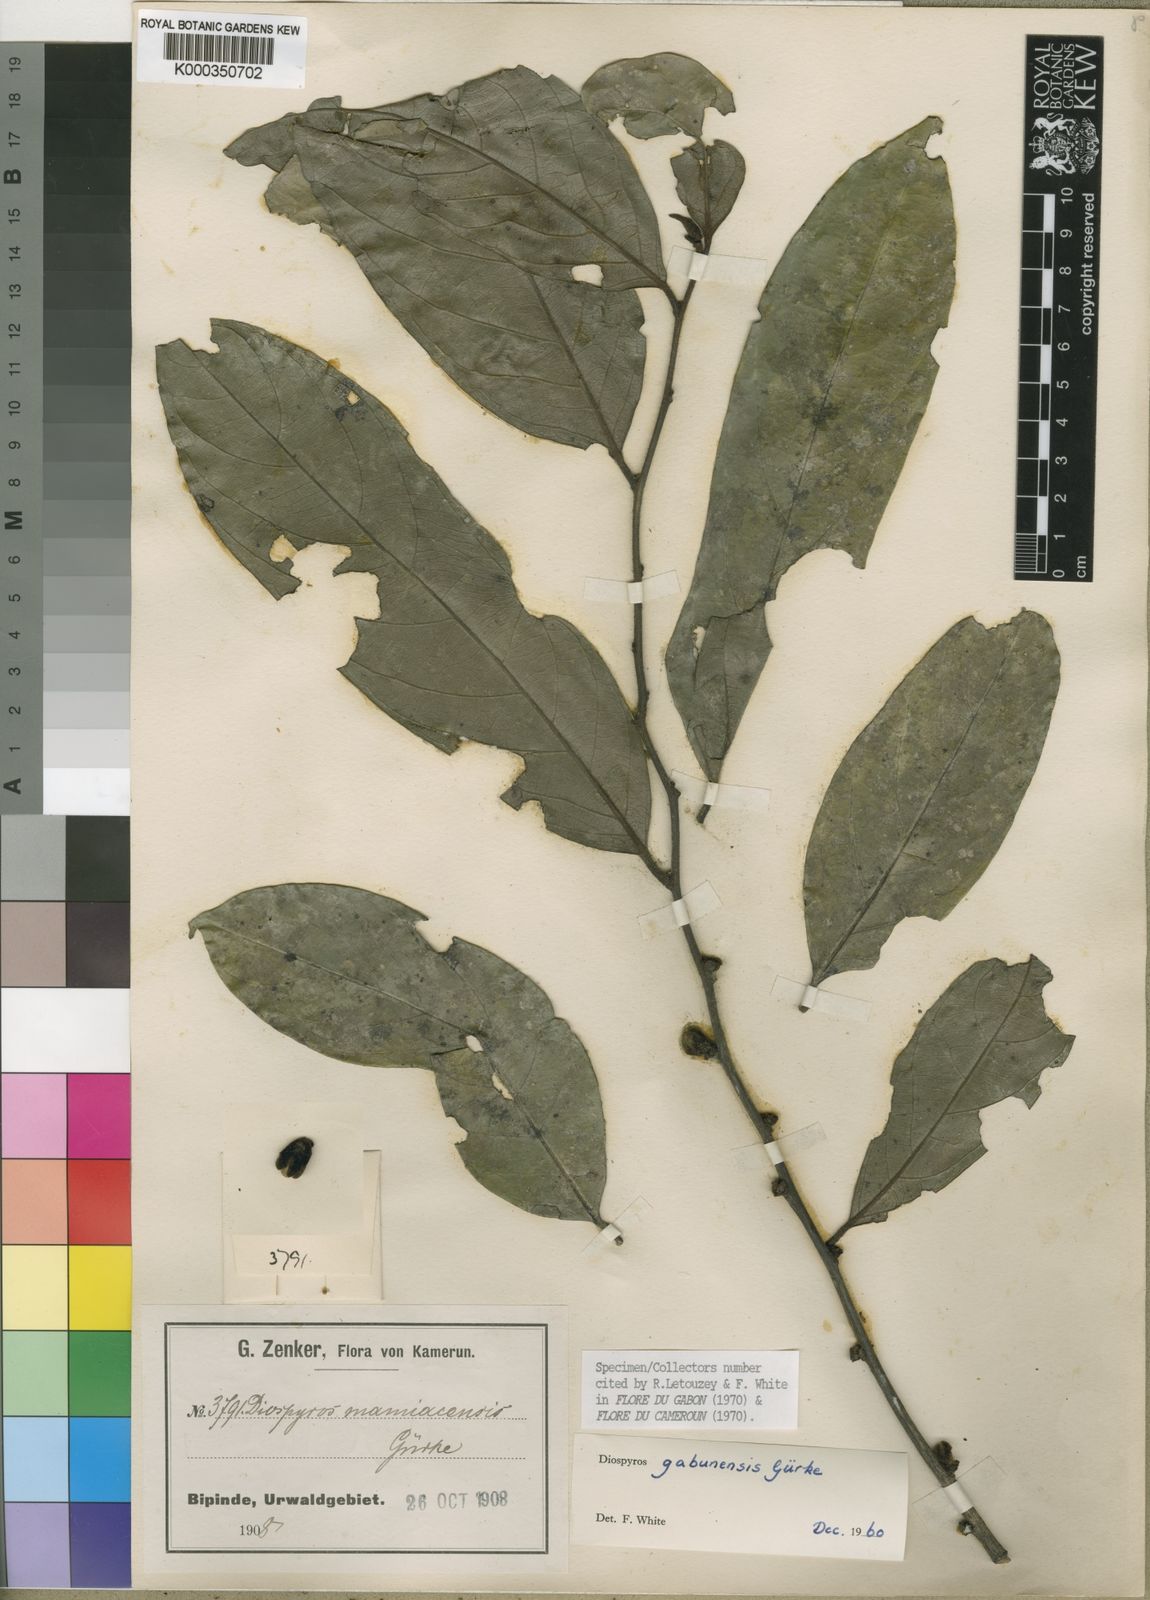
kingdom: Plantae
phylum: Tracheophyta
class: Magnoliopsida
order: Ericales
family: Ebenaceae
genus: Diospyros
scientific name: Diospyros
